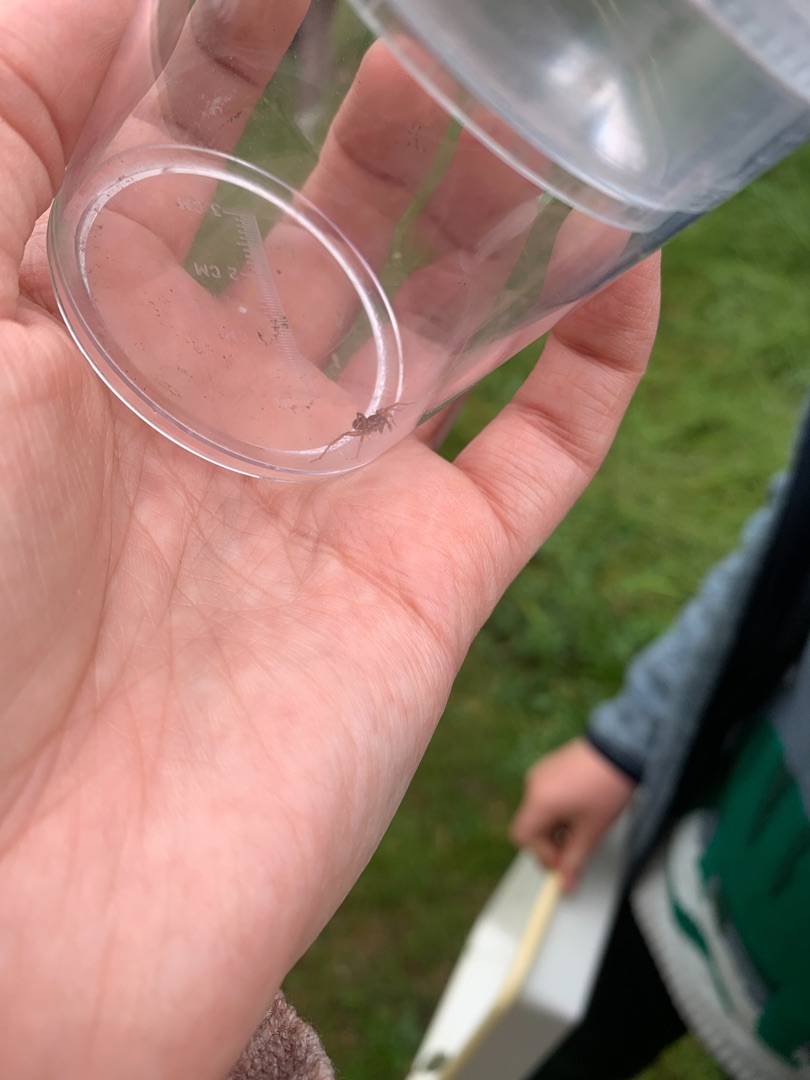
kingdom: Animalia
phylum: Arthropoda
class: Arachnida
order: Araneae
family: Lycosidae
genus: Pardosa
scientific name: Pardosa
